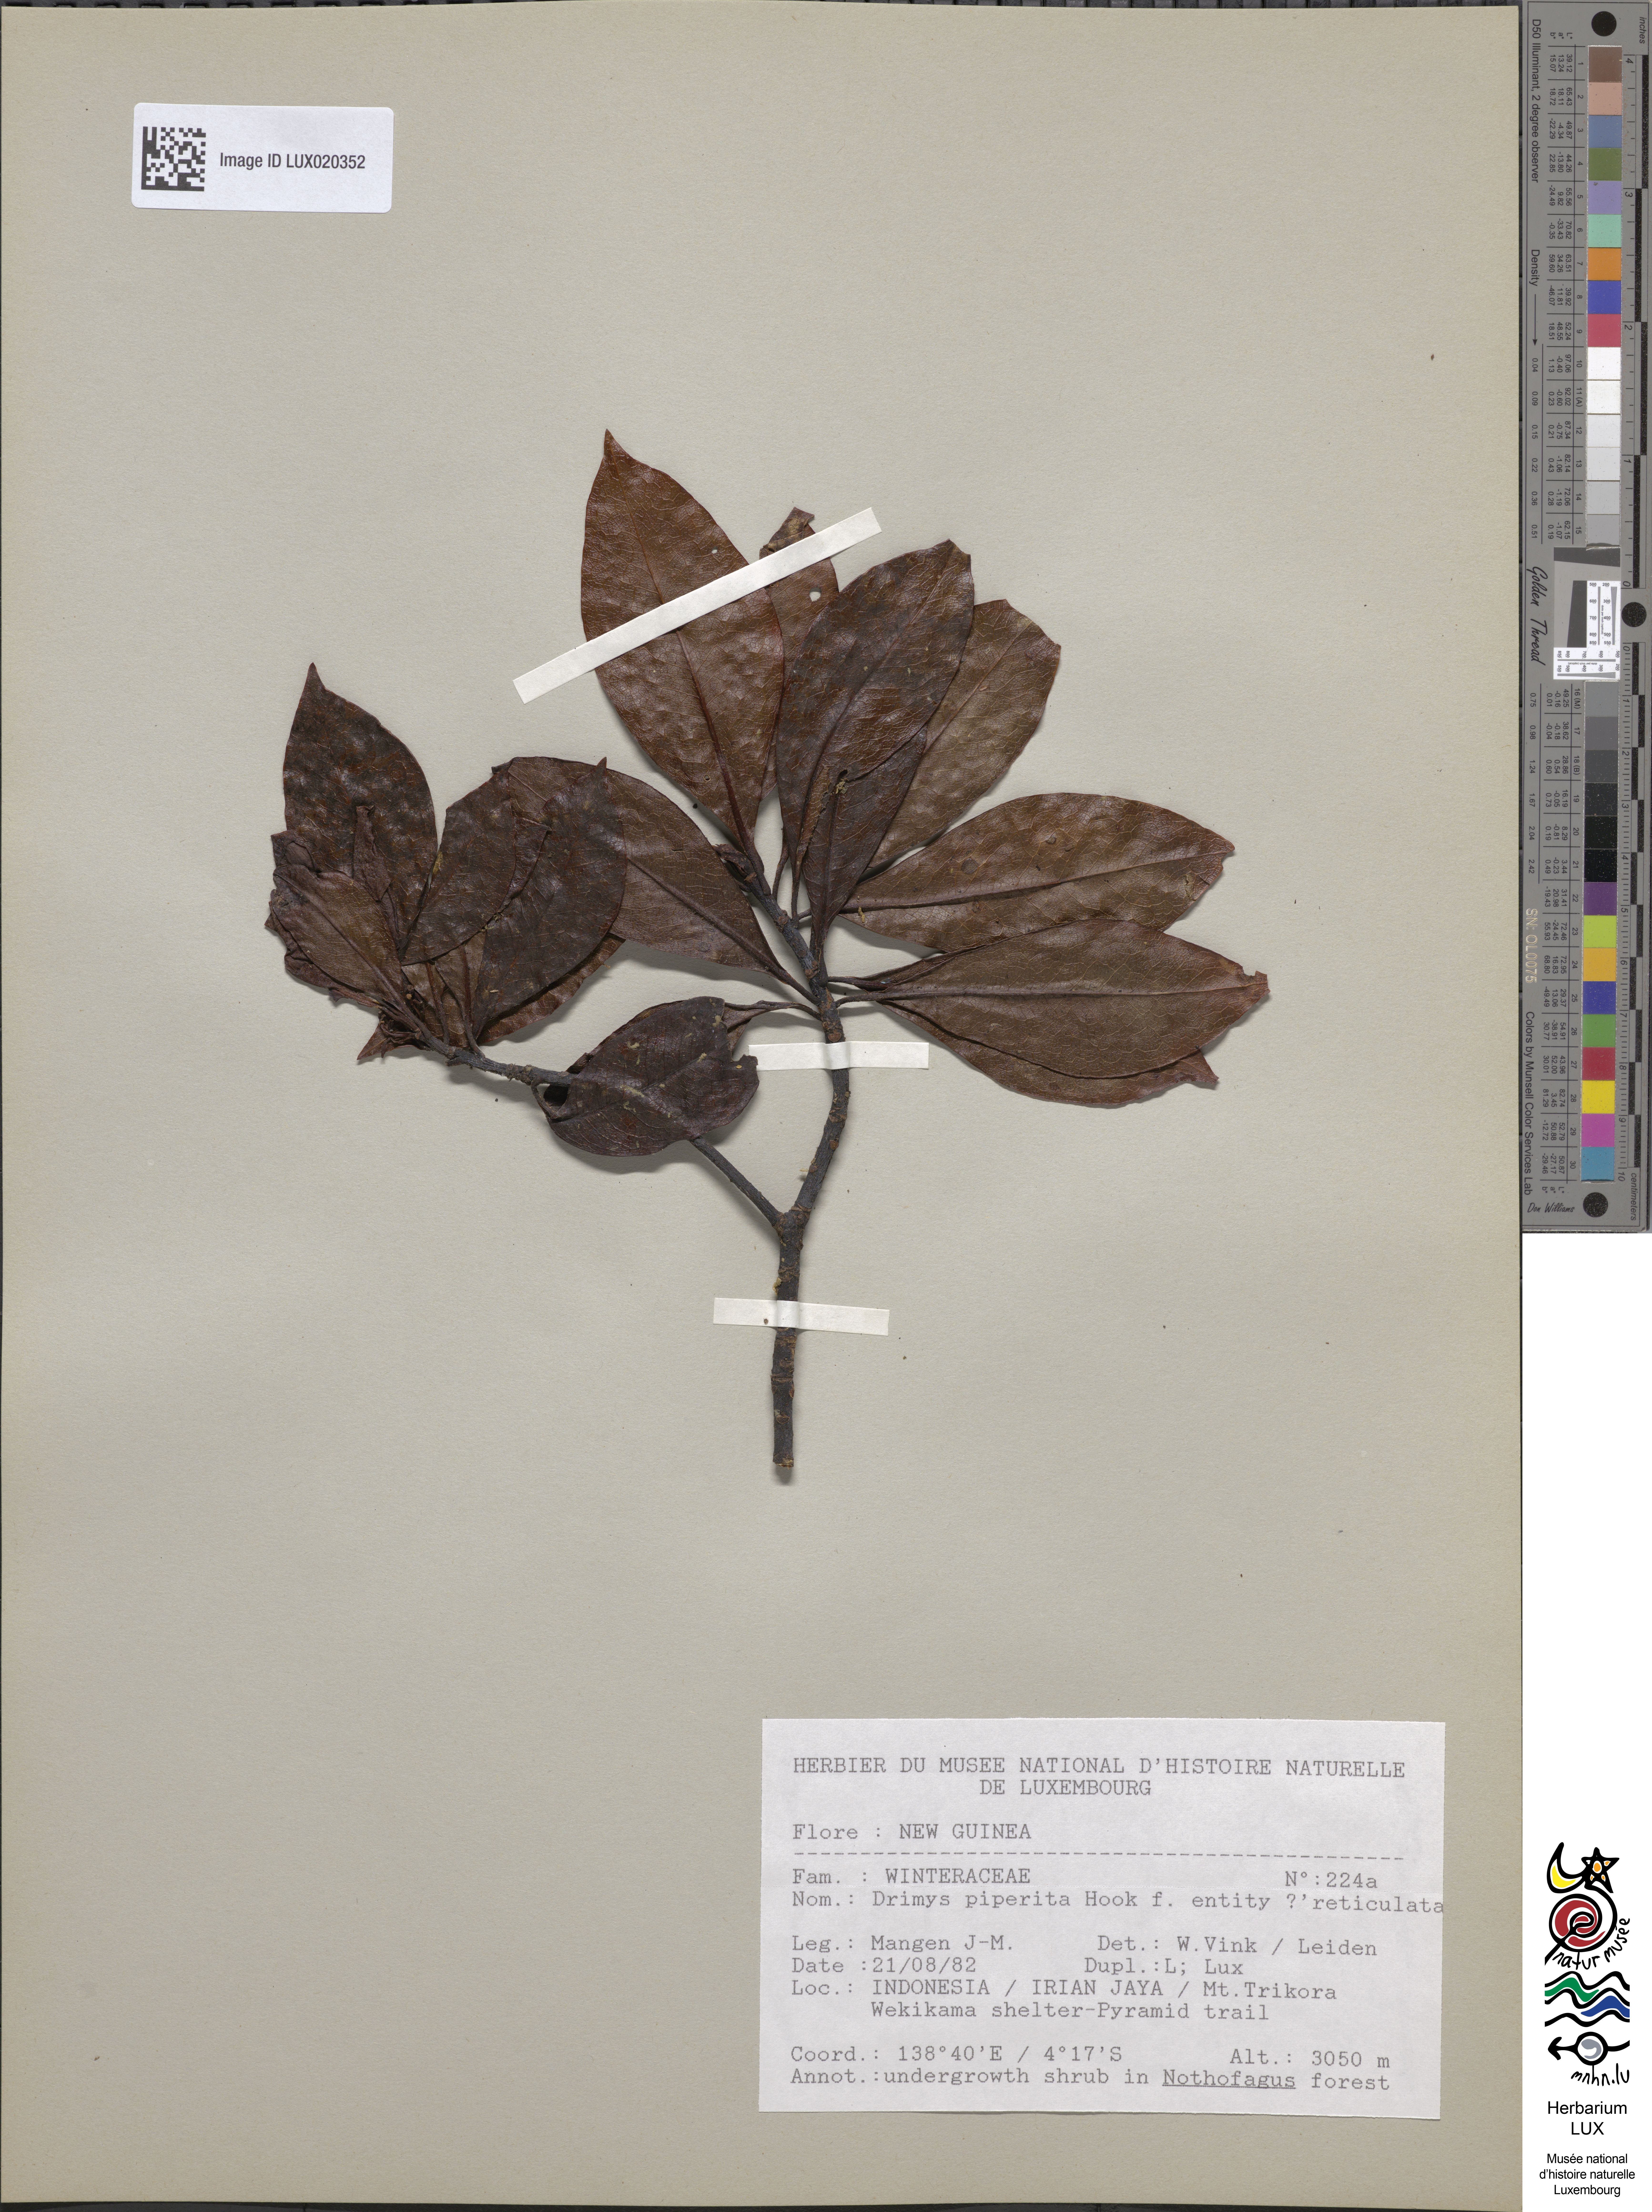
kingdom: Plantae
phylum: Tracheophyta
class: Magnoliopsida
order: Canellales
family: Winteraceae
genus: Drimys
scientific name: Drimys piperita
